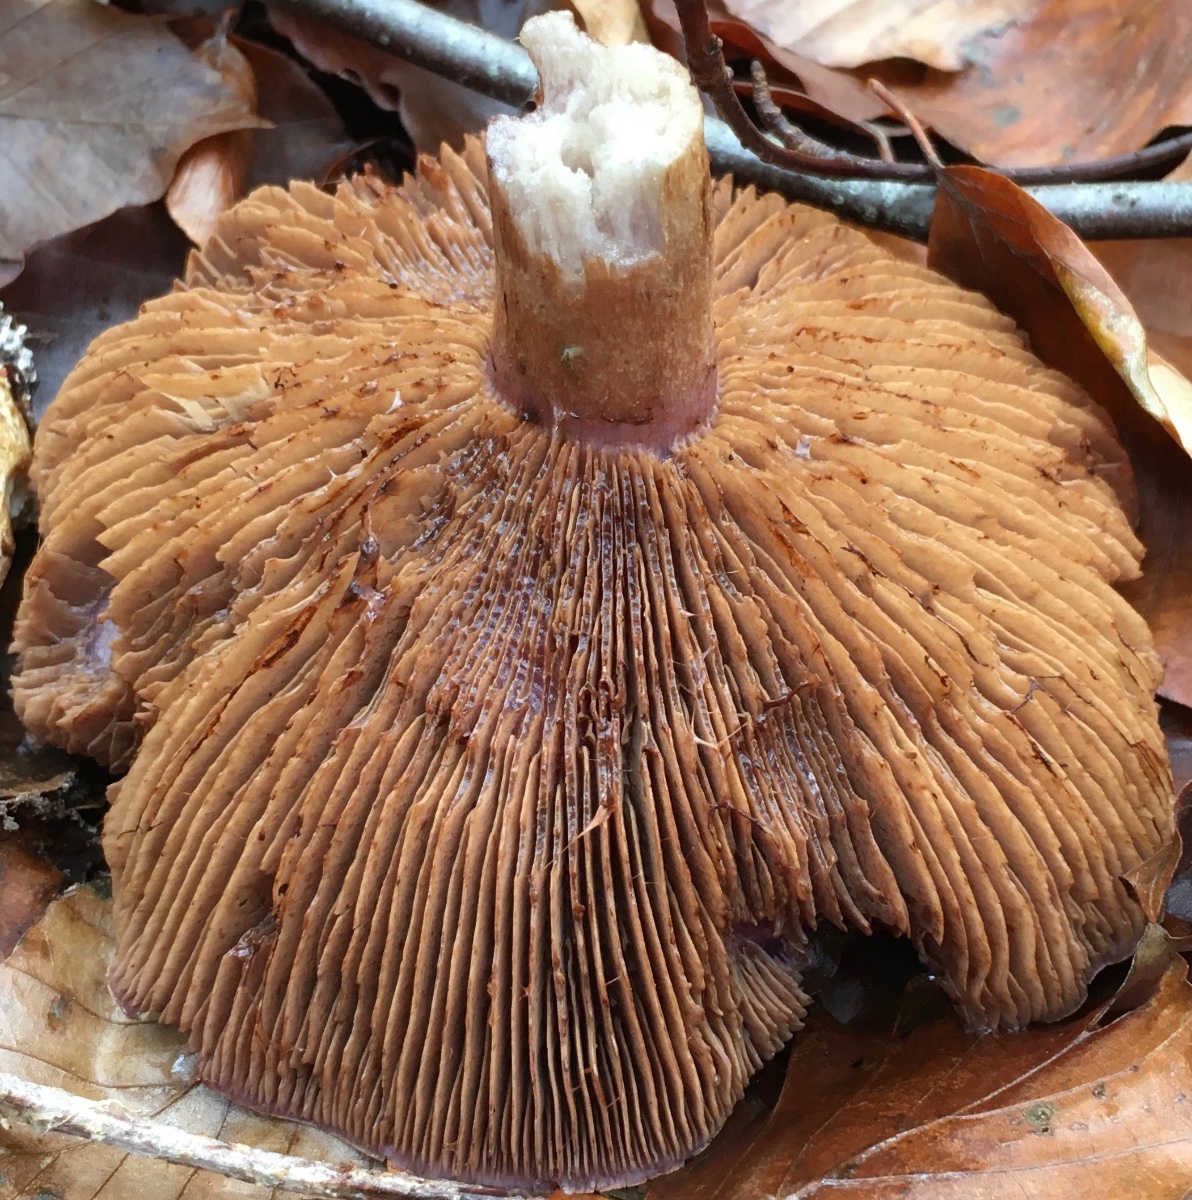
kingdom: Fungi
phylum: Basidiomycota
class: Agaricomycetes
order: Agaricales
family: Cortinariaceae
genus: Cortinarius
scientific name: Cortinarius largus
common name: violetrandet slørhat
